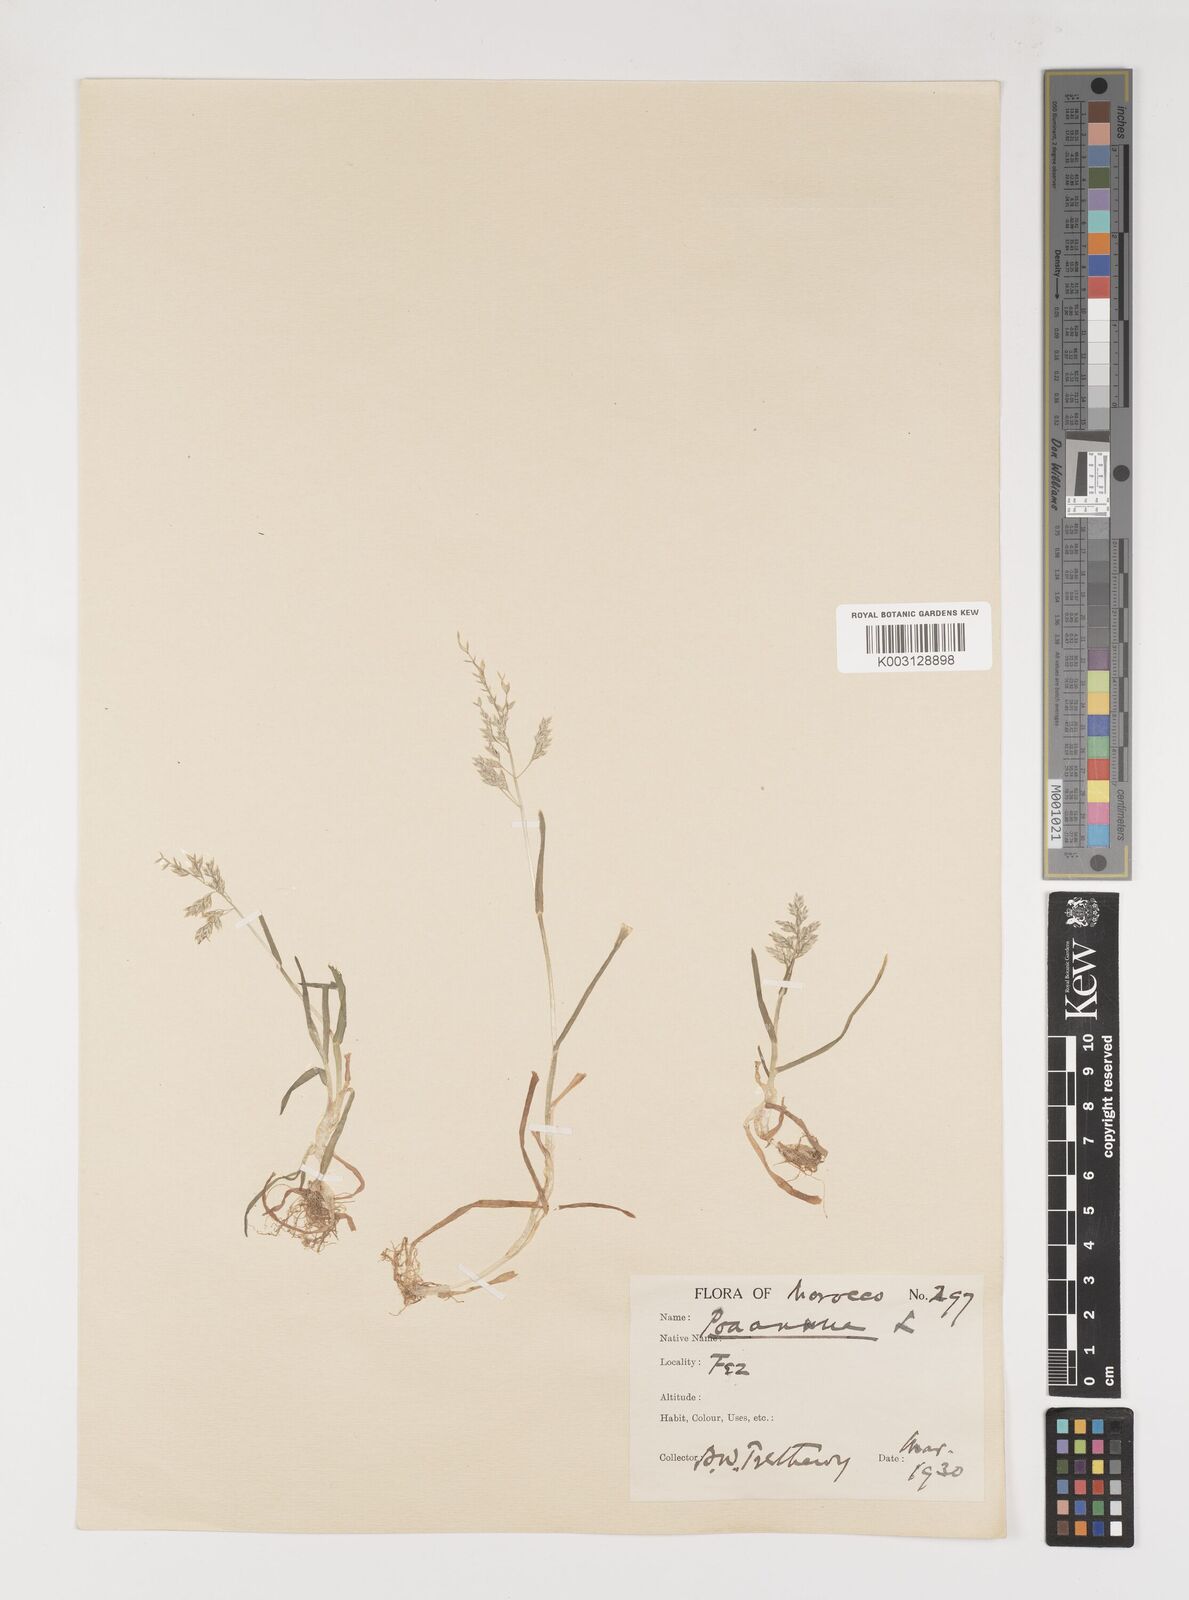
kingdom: Plantae
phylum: Tracheophyta
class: Liliopsida
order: Poales
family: Poaceae
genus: Poa
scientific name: Poa annua
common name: Annual bluegrass
